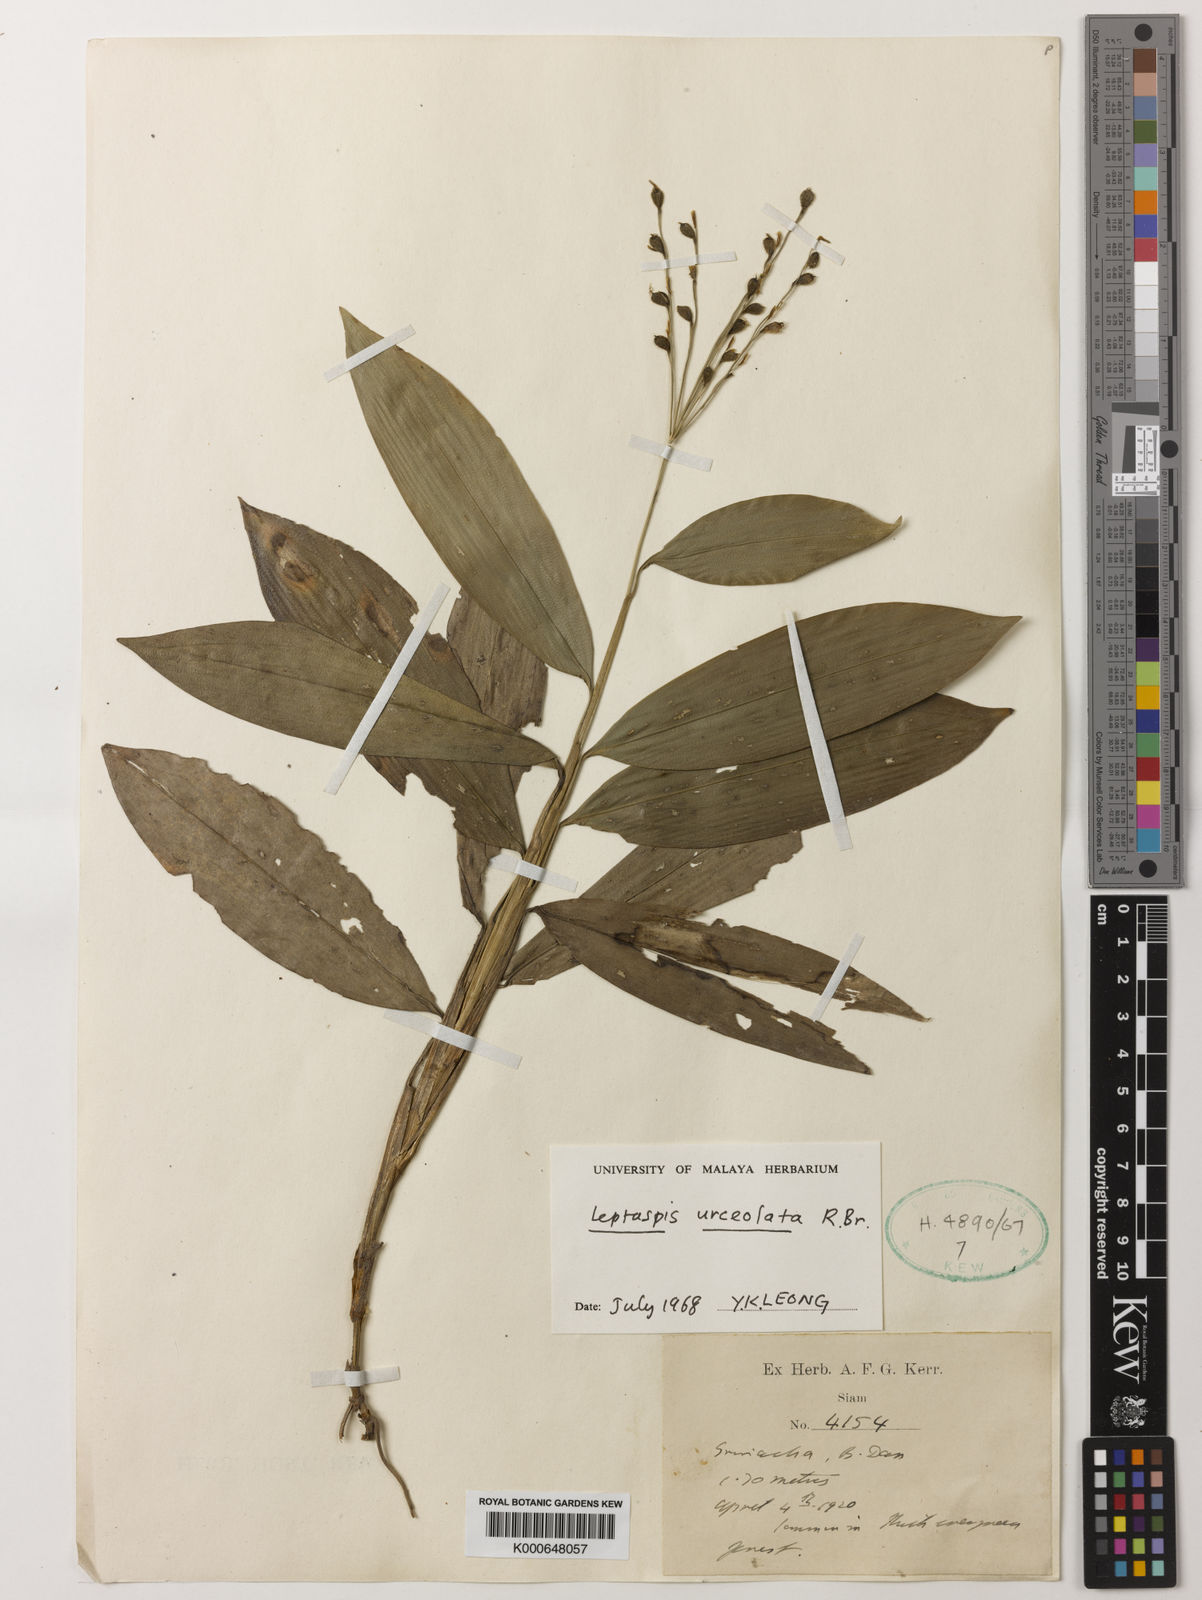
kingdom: Plantae
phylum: Tracheophyta
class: Liliopsida
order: Poales
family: Poaceae
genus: Scrotochloa
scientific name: Scrotochloa urceolata
